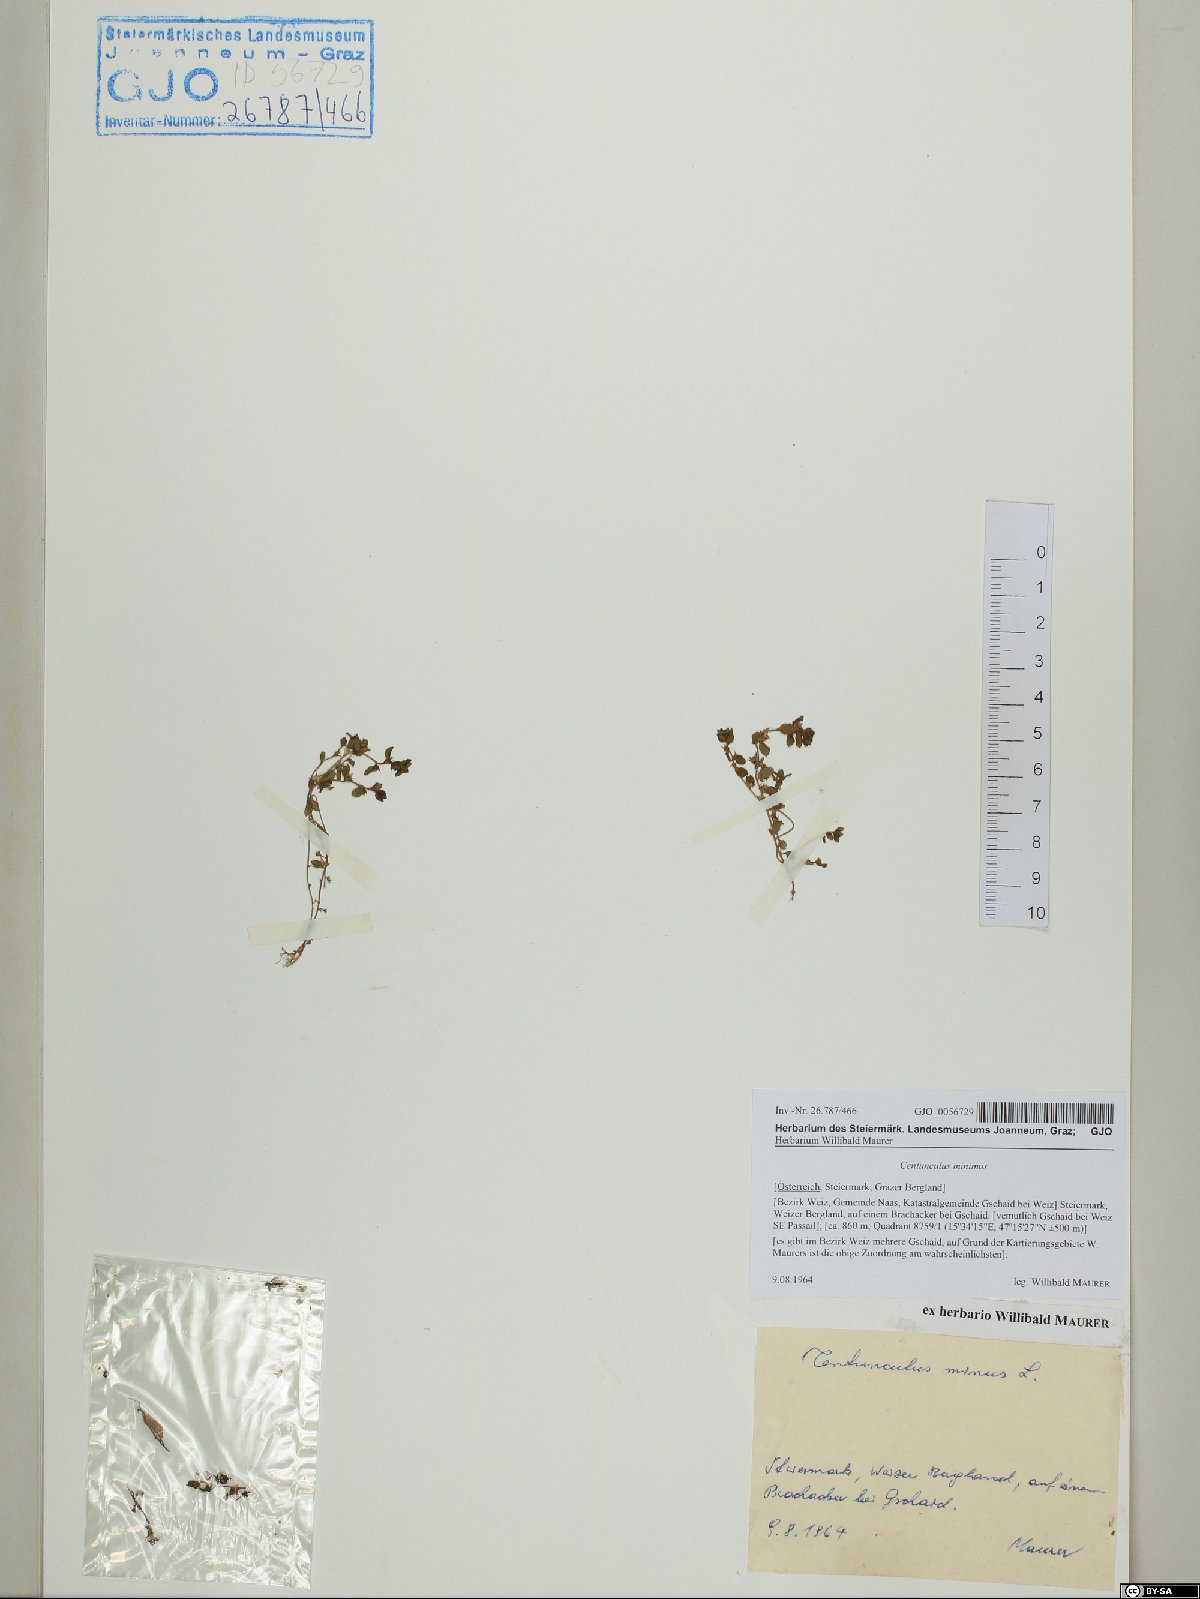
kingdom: Plantae
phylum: Tracheophyta
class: Magnoliopsida
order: Ericales
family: Primulaceae
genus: Lysimachia
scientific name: Lysimachia minima
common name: Chaffweed
